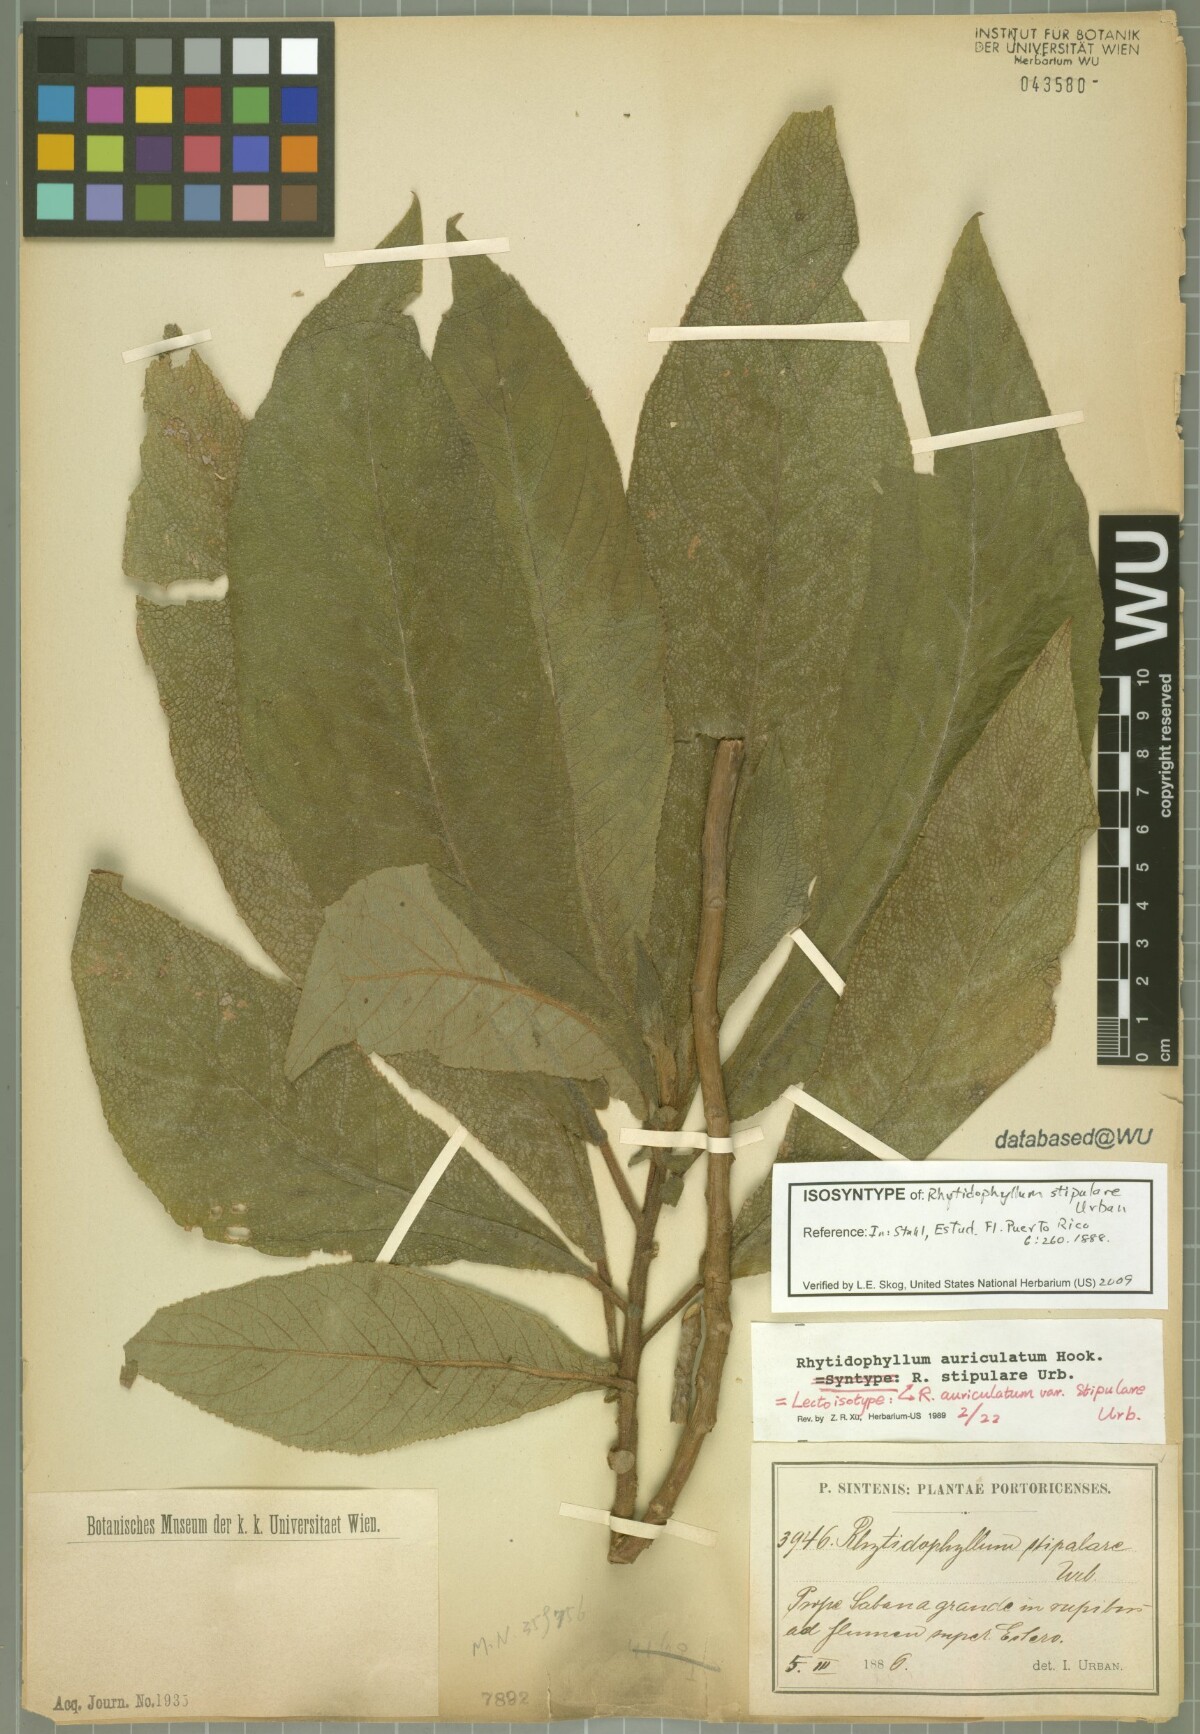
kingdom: Plantae
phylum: Tracheophyta
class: Magnoliopsida
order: Lamiales
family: Gesneriaceae
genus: Rhytidophyllum
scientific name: Rhytidophyllum auriculatum
